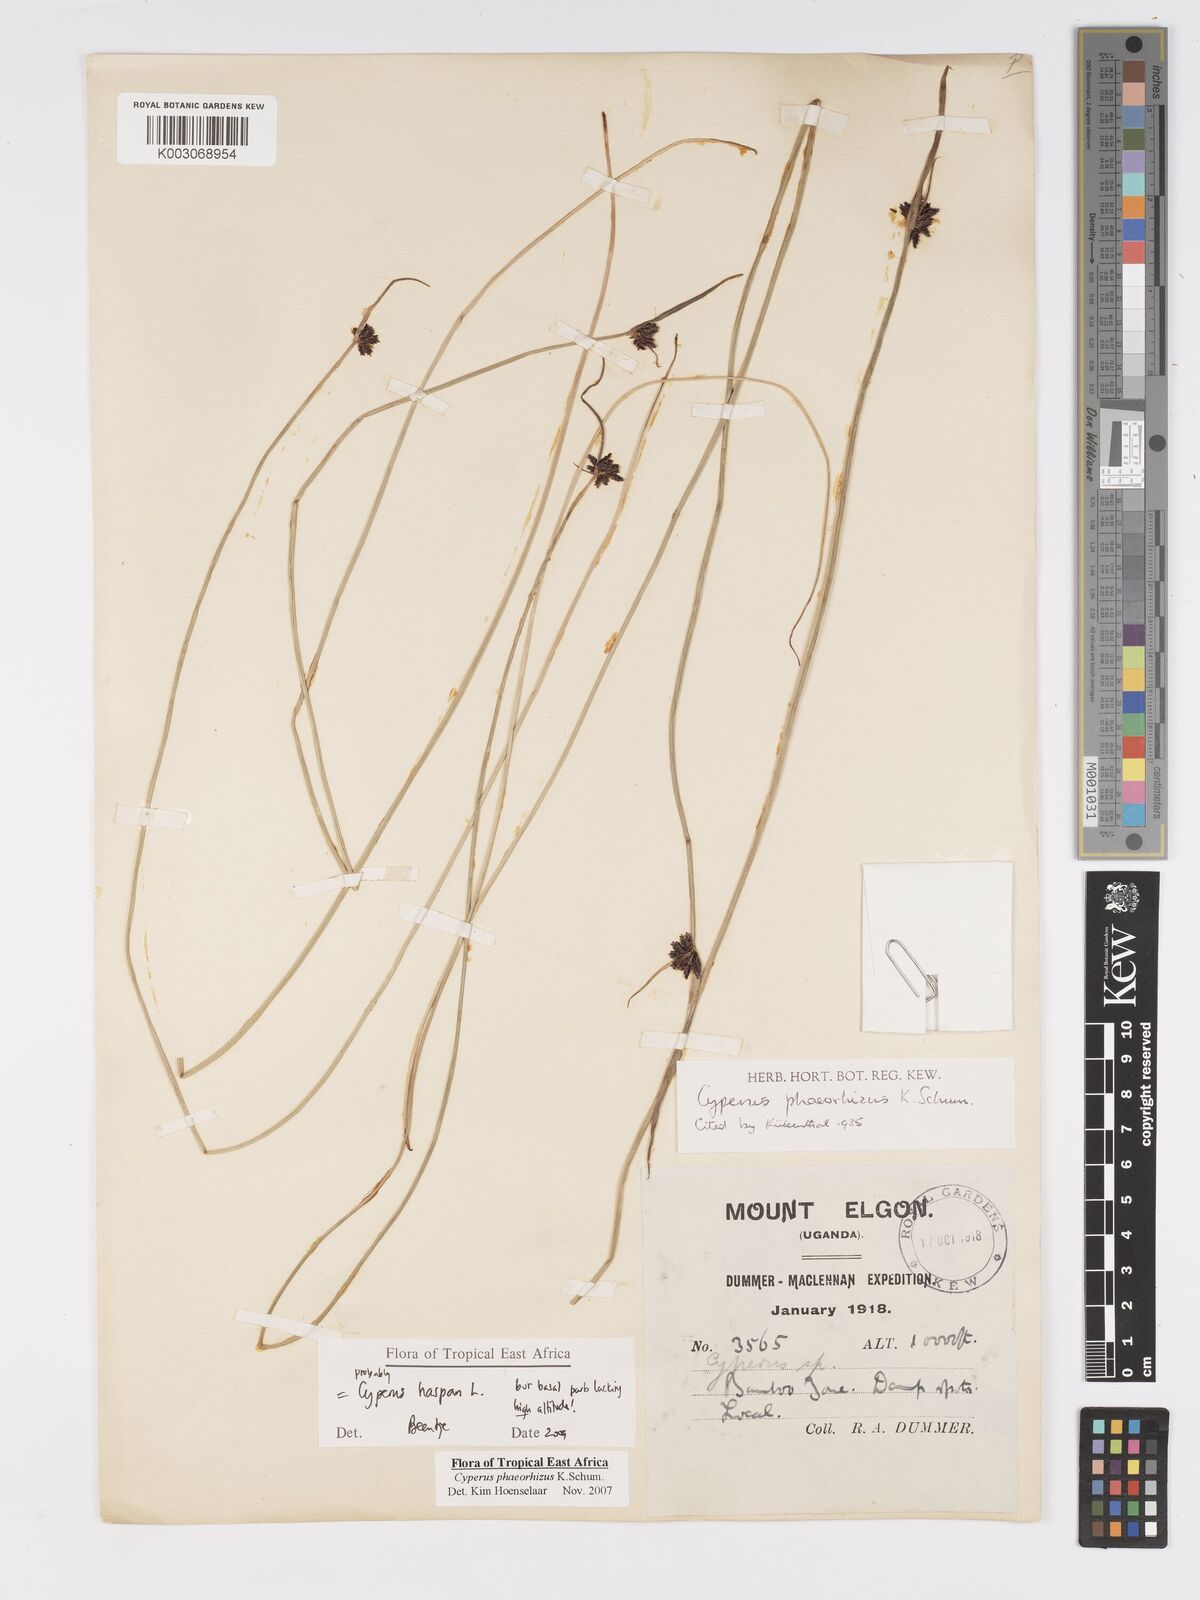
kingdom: Plantae
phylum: Tracheophyta
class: Liliopsida
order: Poales
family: Cyperaceae
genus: Cyperus
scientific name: Cyperus haspan
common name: Haspan flatsedge
